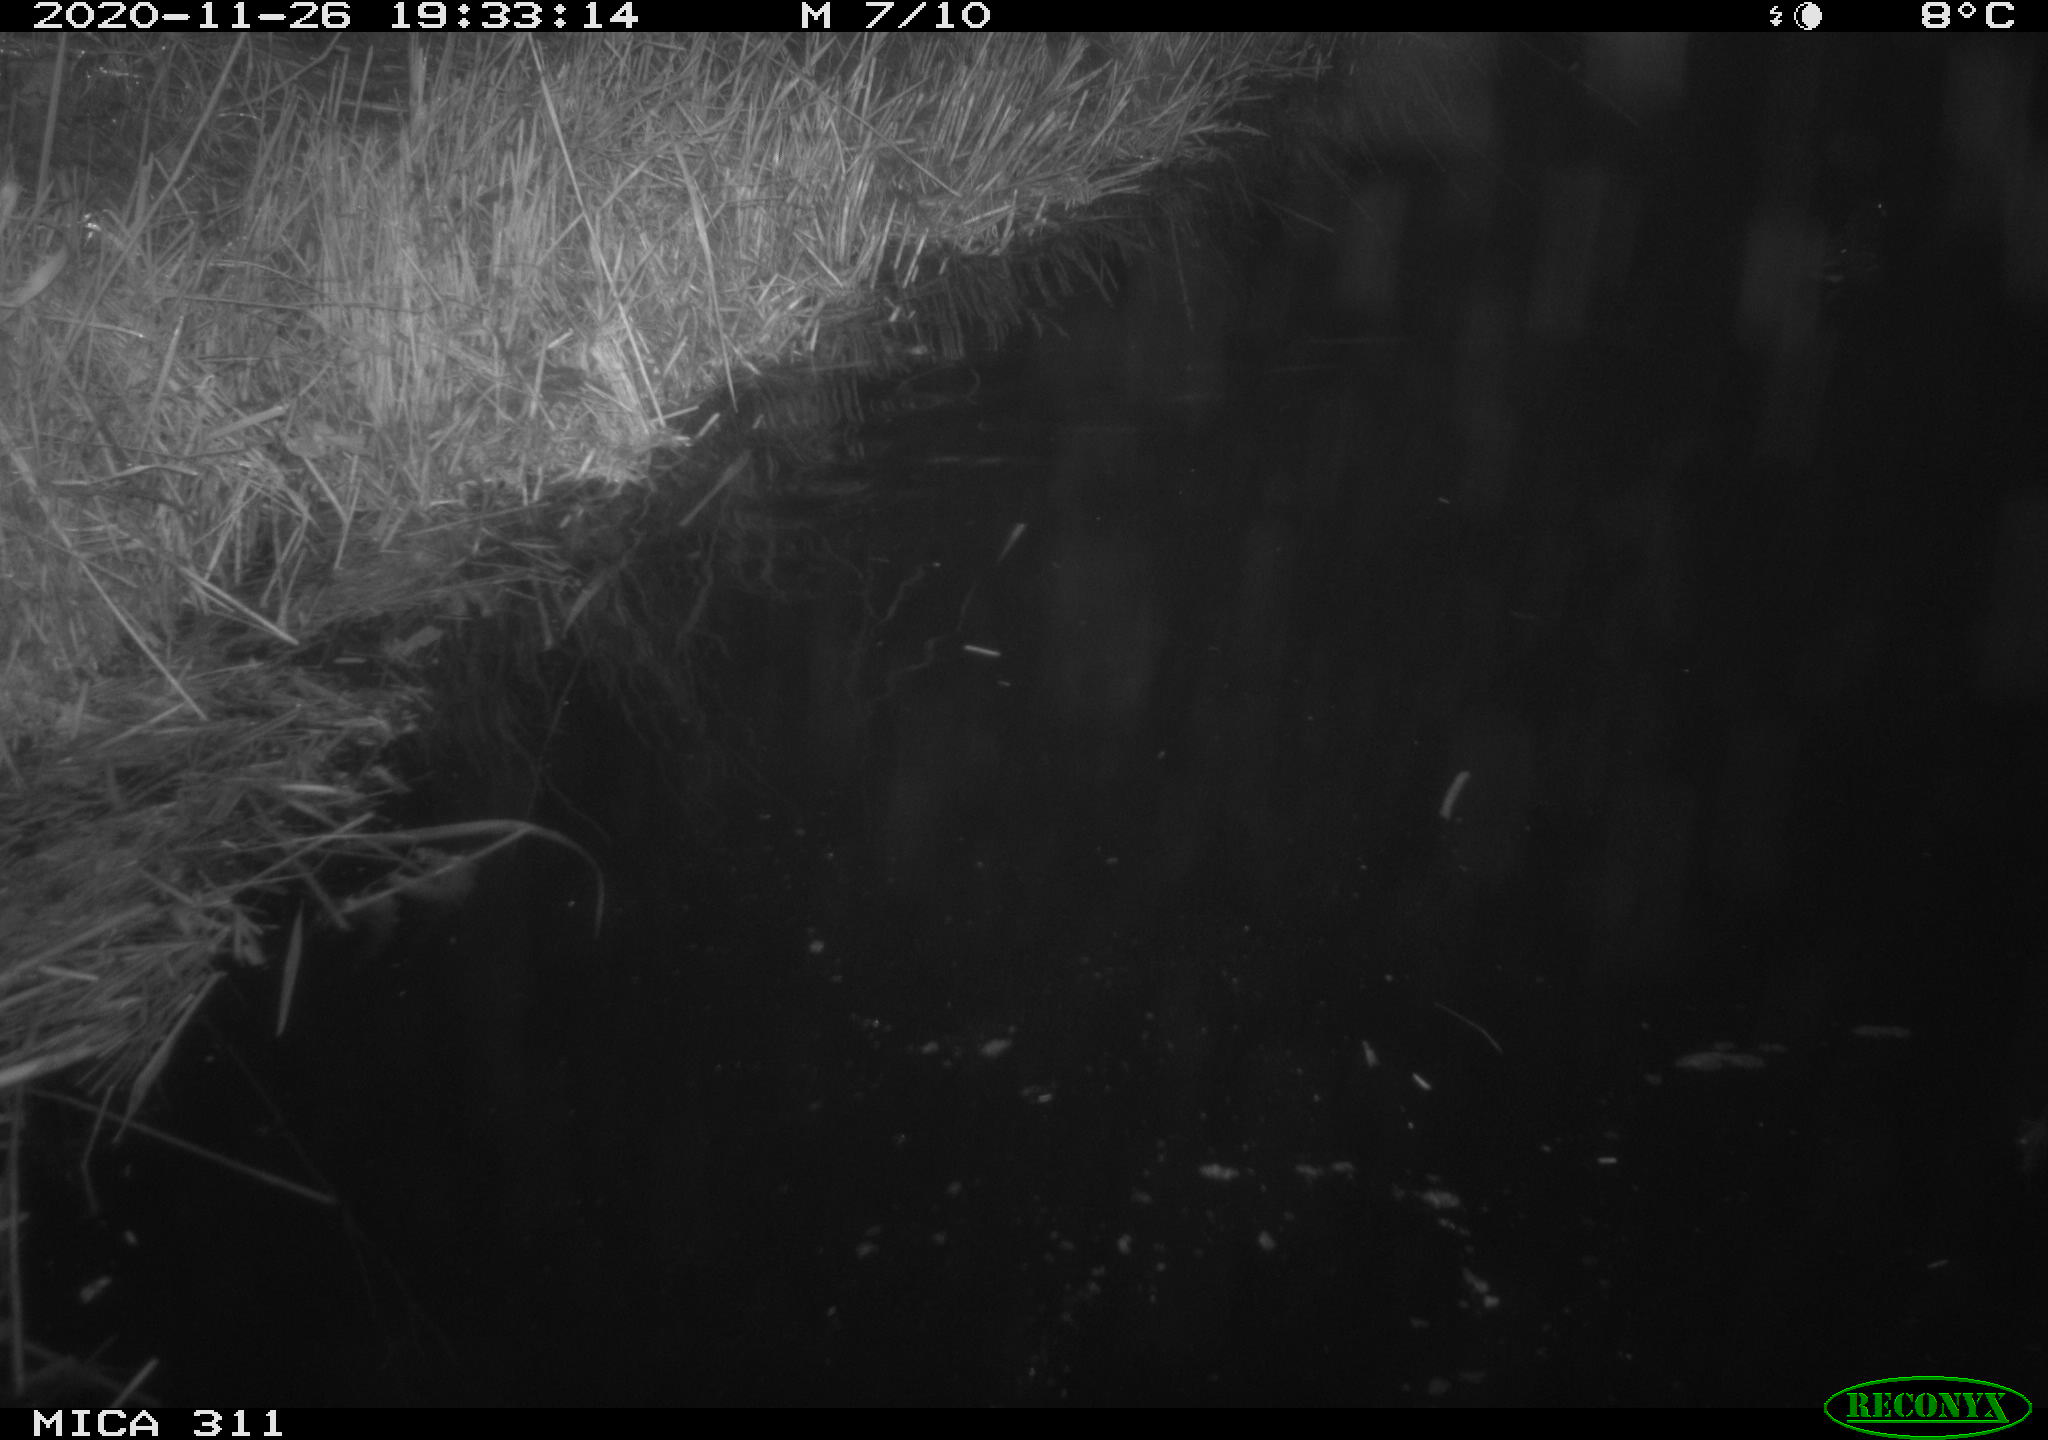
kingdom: Animalia
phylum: Chordata
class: Aves
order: Gruiformes
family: Rallidae
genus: Gallinula
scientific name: Gallinula chloropus
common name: Common moorhen
